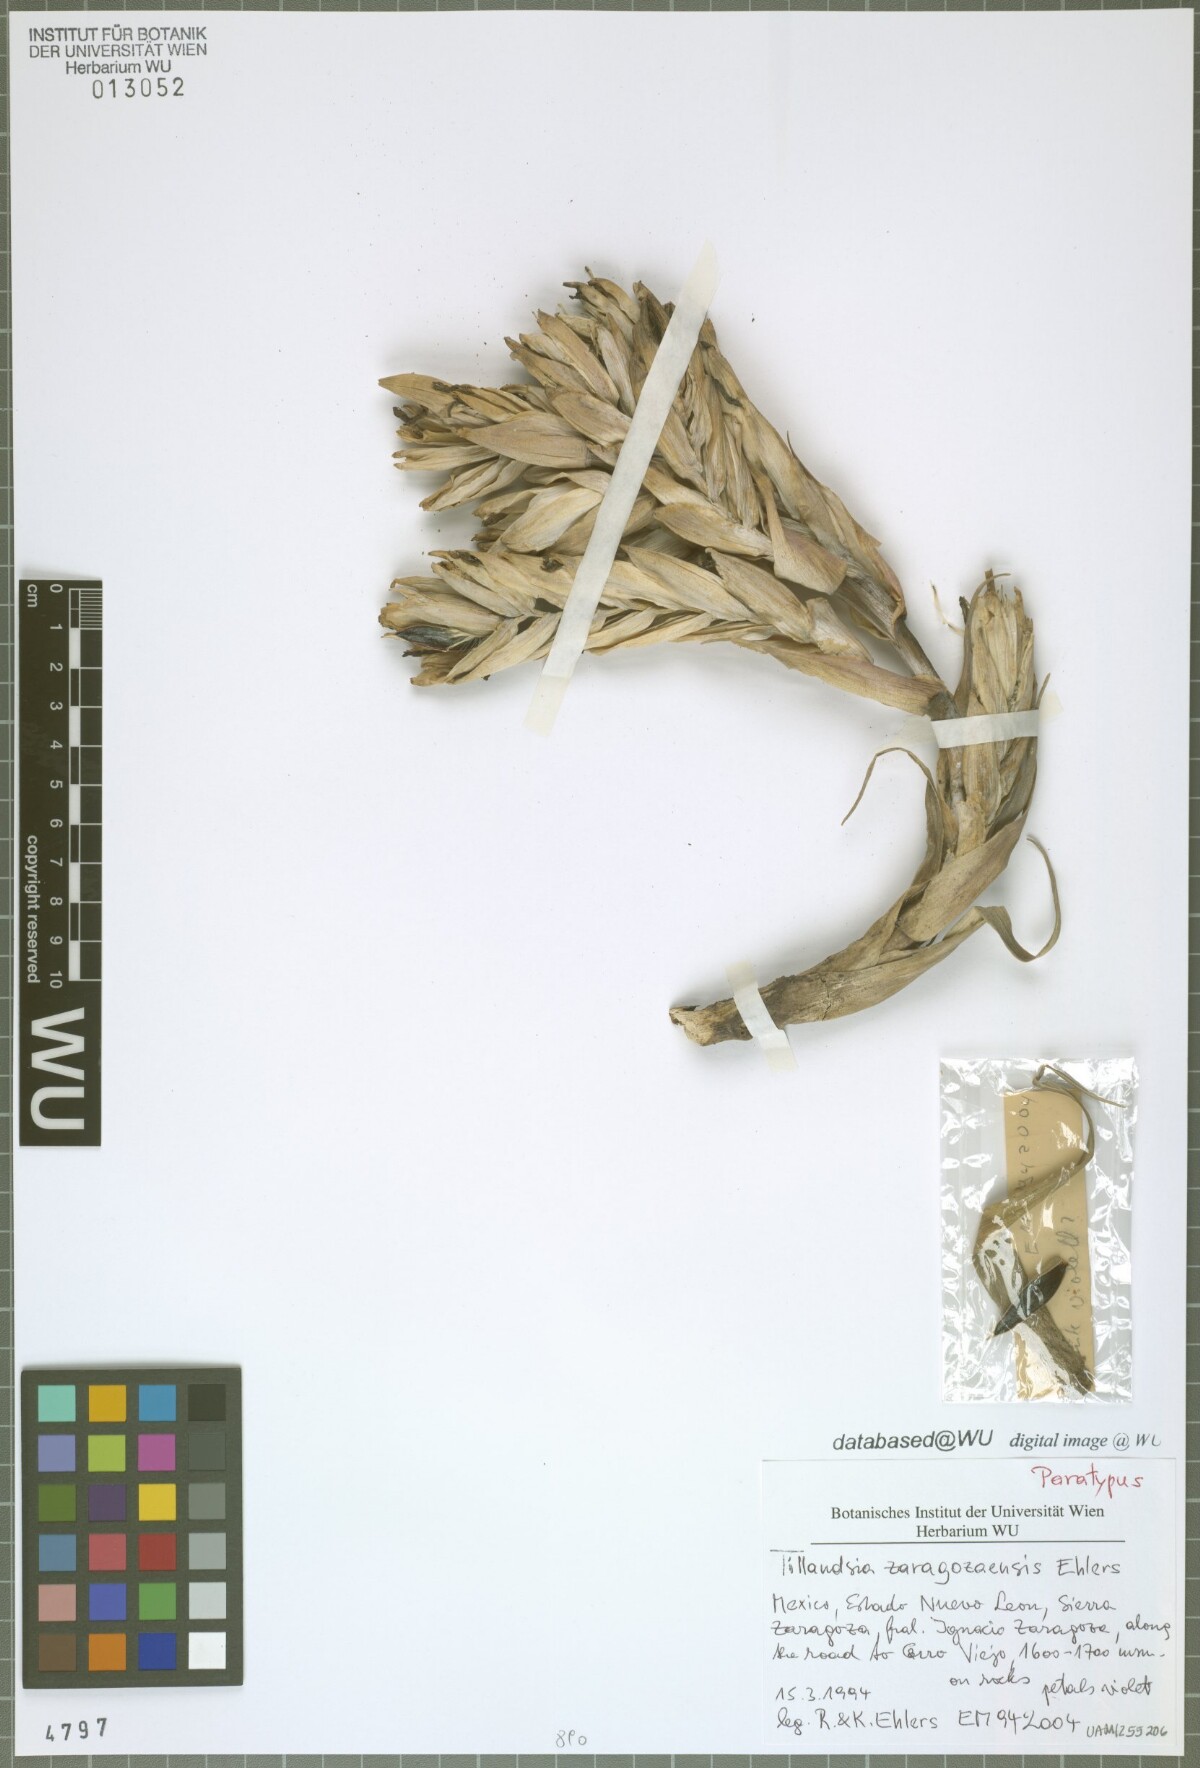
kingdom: Plantae
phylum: Tracheophyta
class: Liliopsida
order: Poales
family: Bromeliaceae
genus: Tillandsia
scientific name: Tillandsia zaragozaensis
